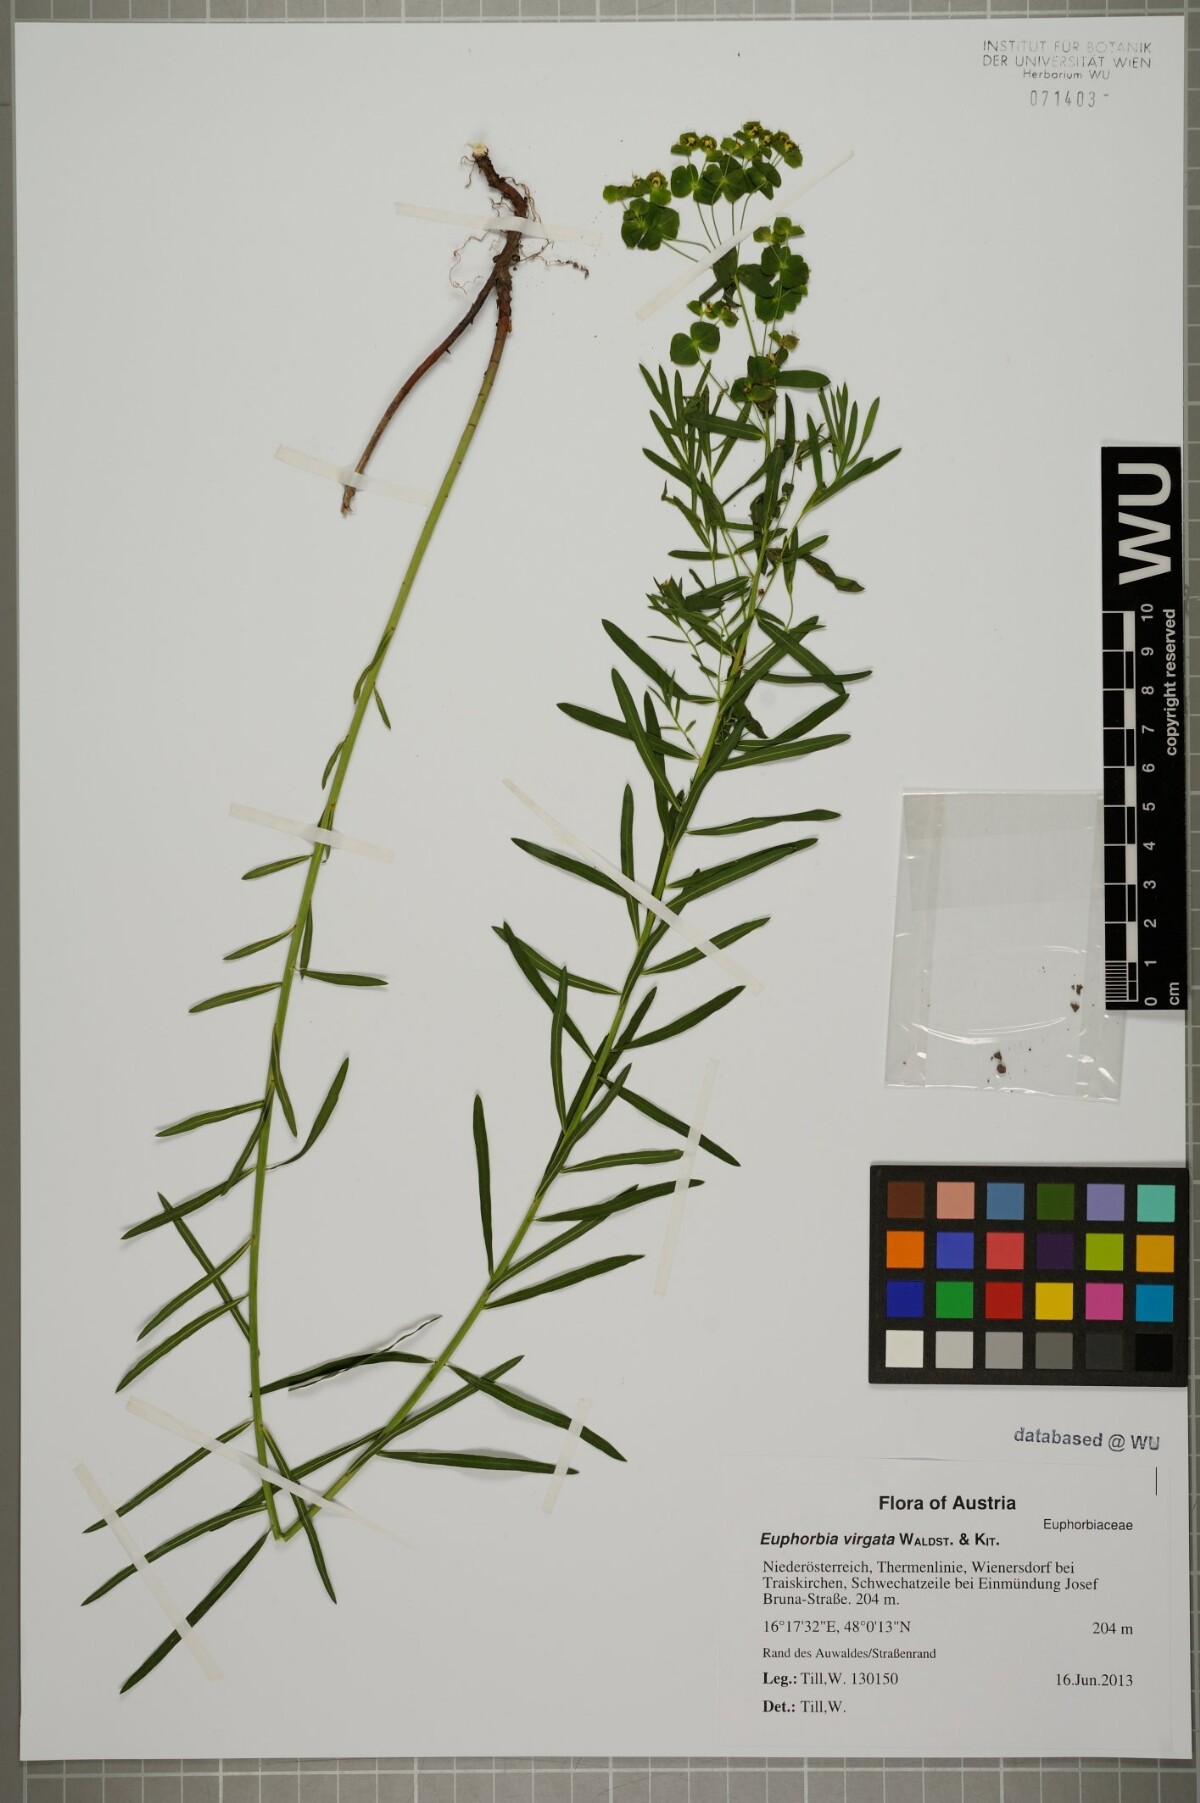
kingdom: Plantae
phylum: Tracheophyta
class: Magnoliopsida
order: Malpighiales
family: Euphorbiaceae
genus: Euphorbia
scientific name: Euphorbia virgata
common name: Leafy spurge
